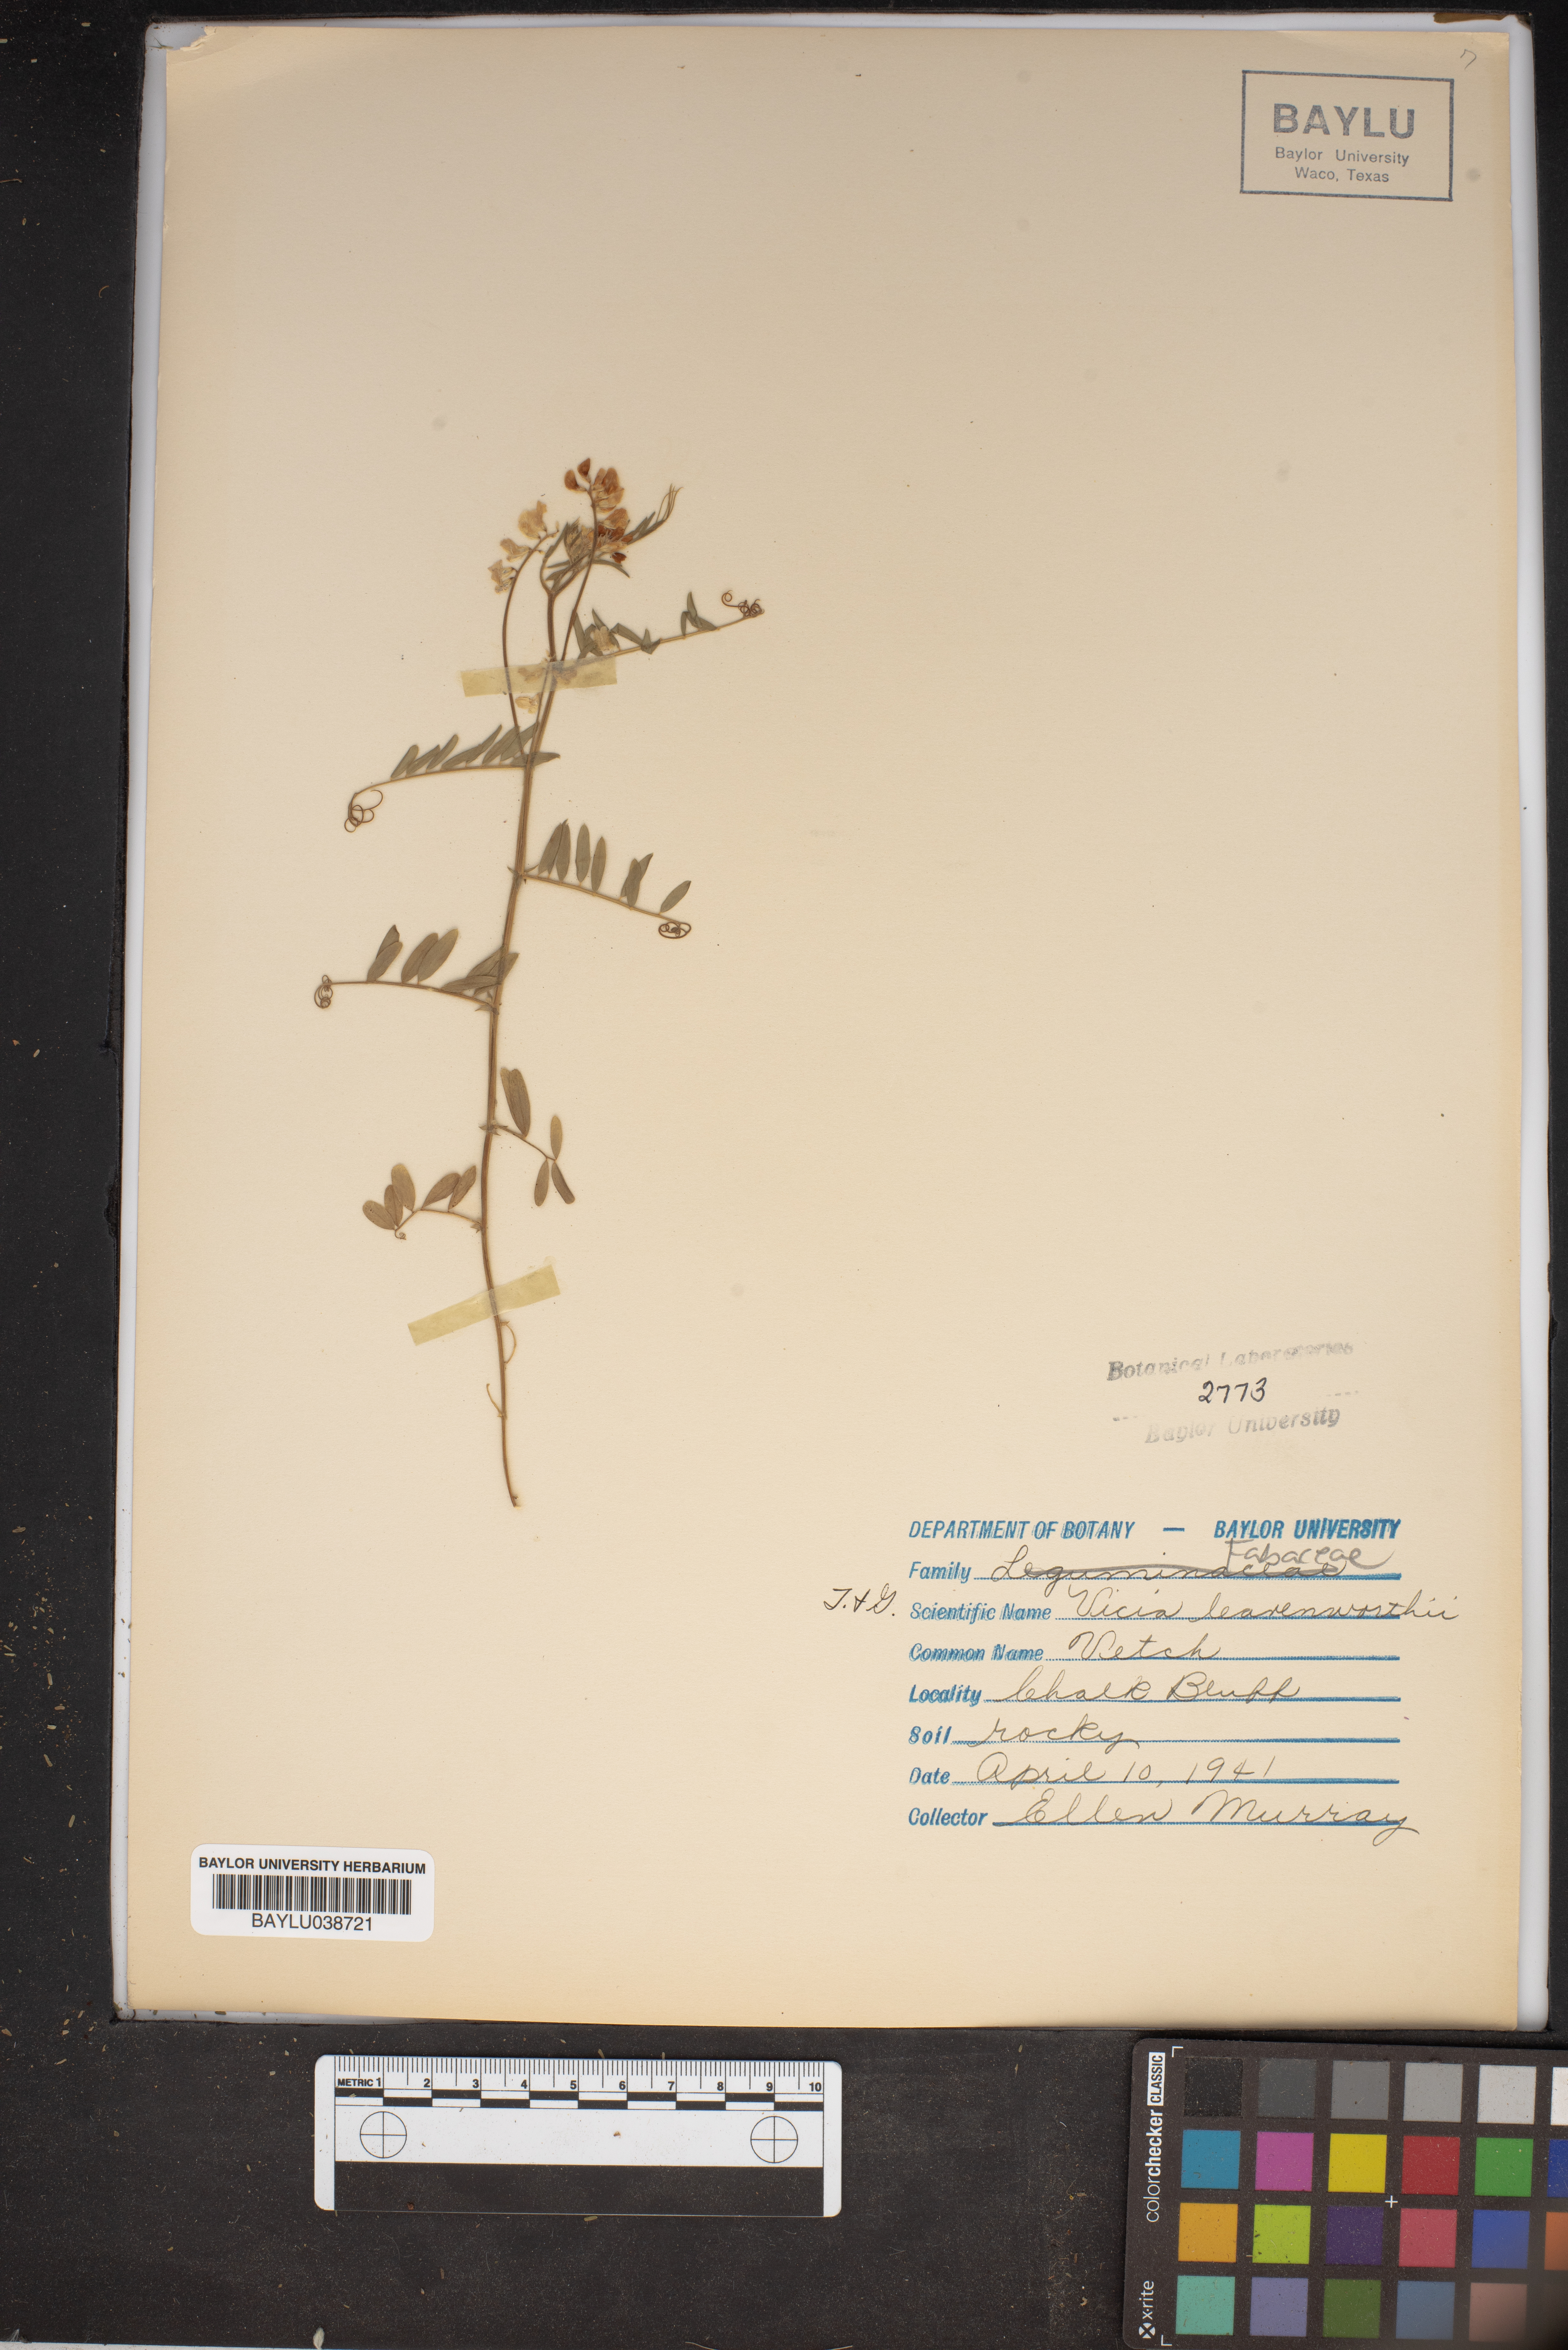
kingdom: Plantae
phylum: Tracheophyta
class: Magnoliopsida
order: Fabales
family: Fabaceae
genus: Vicia
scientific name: Vicia ludoviciana
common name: Louisiana vetch
